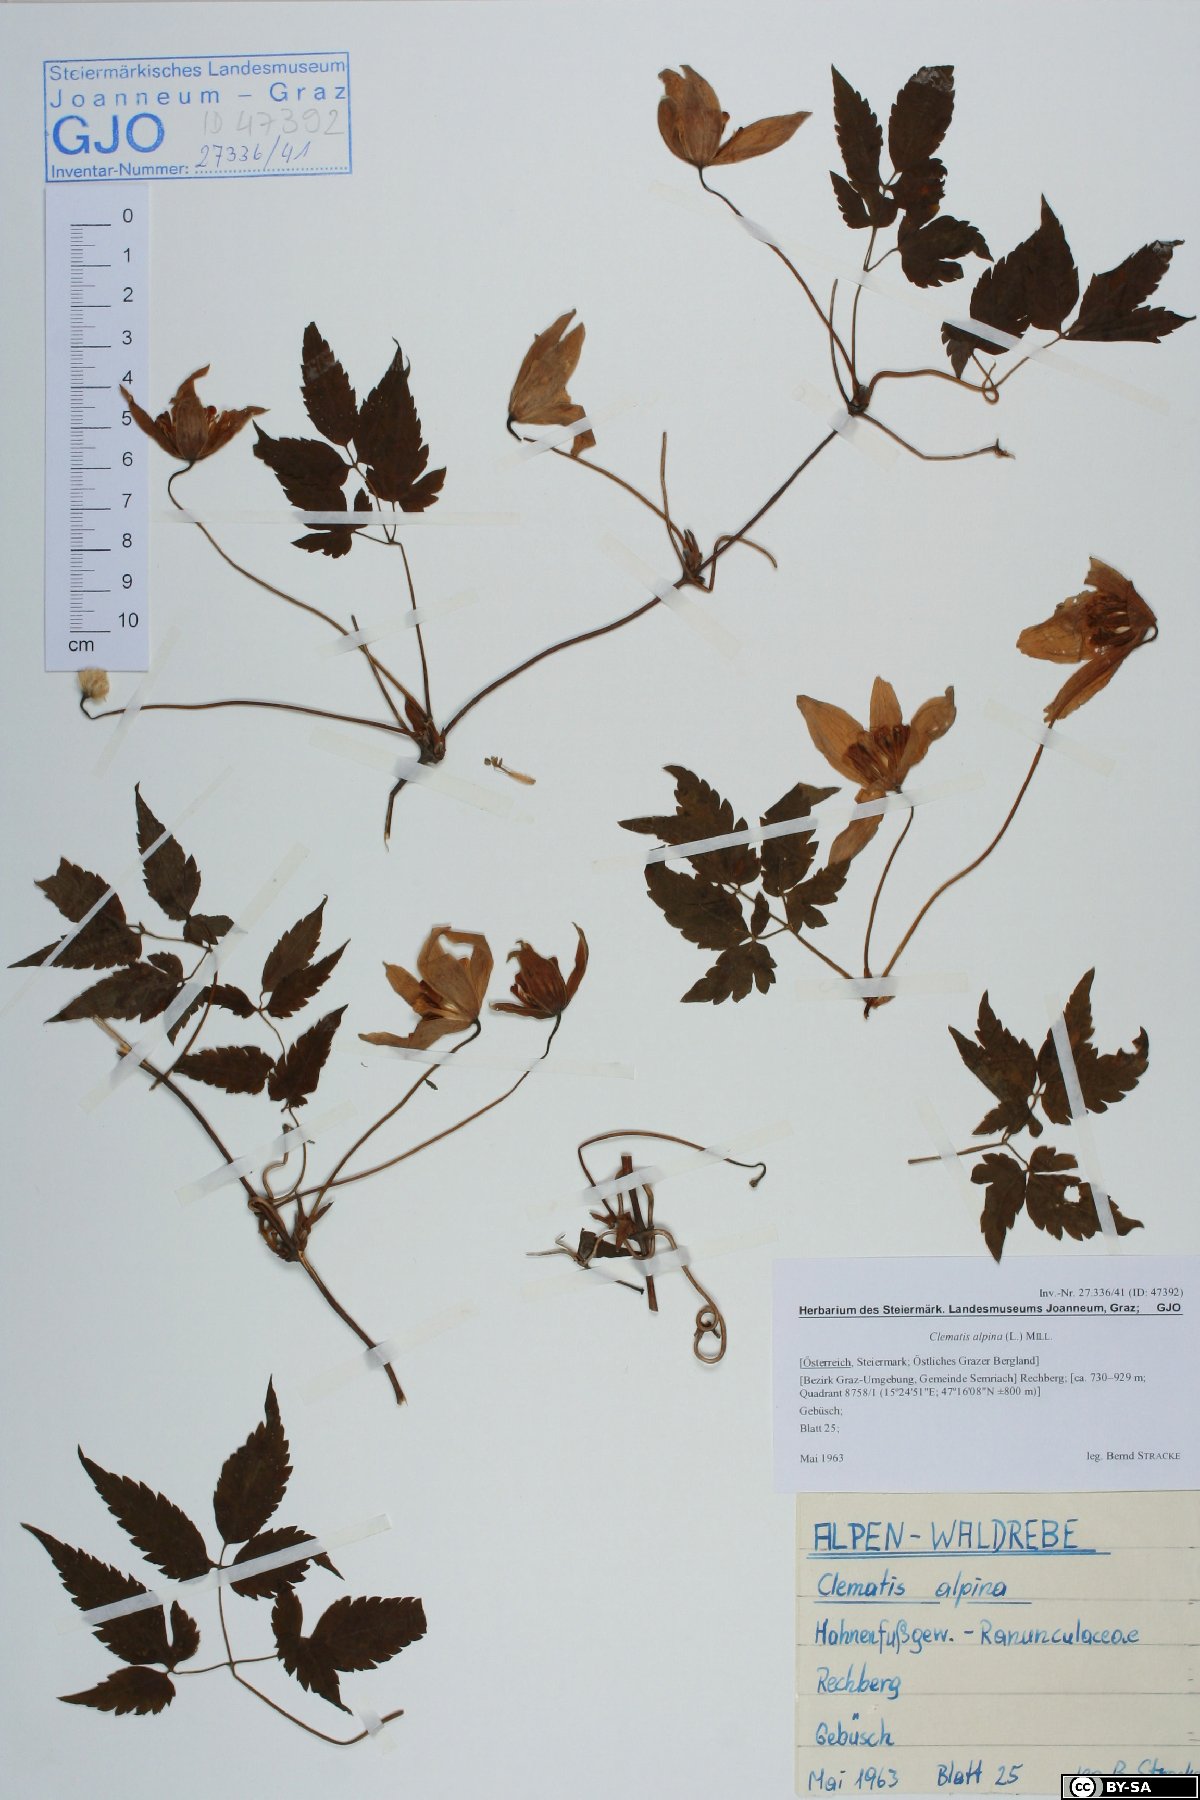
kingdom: Plantae
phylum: Tracheophyta
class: Magnoliopsida
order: Ranunculales
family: Ranunculaceae
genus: Clematis
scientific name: Clematis alpina
